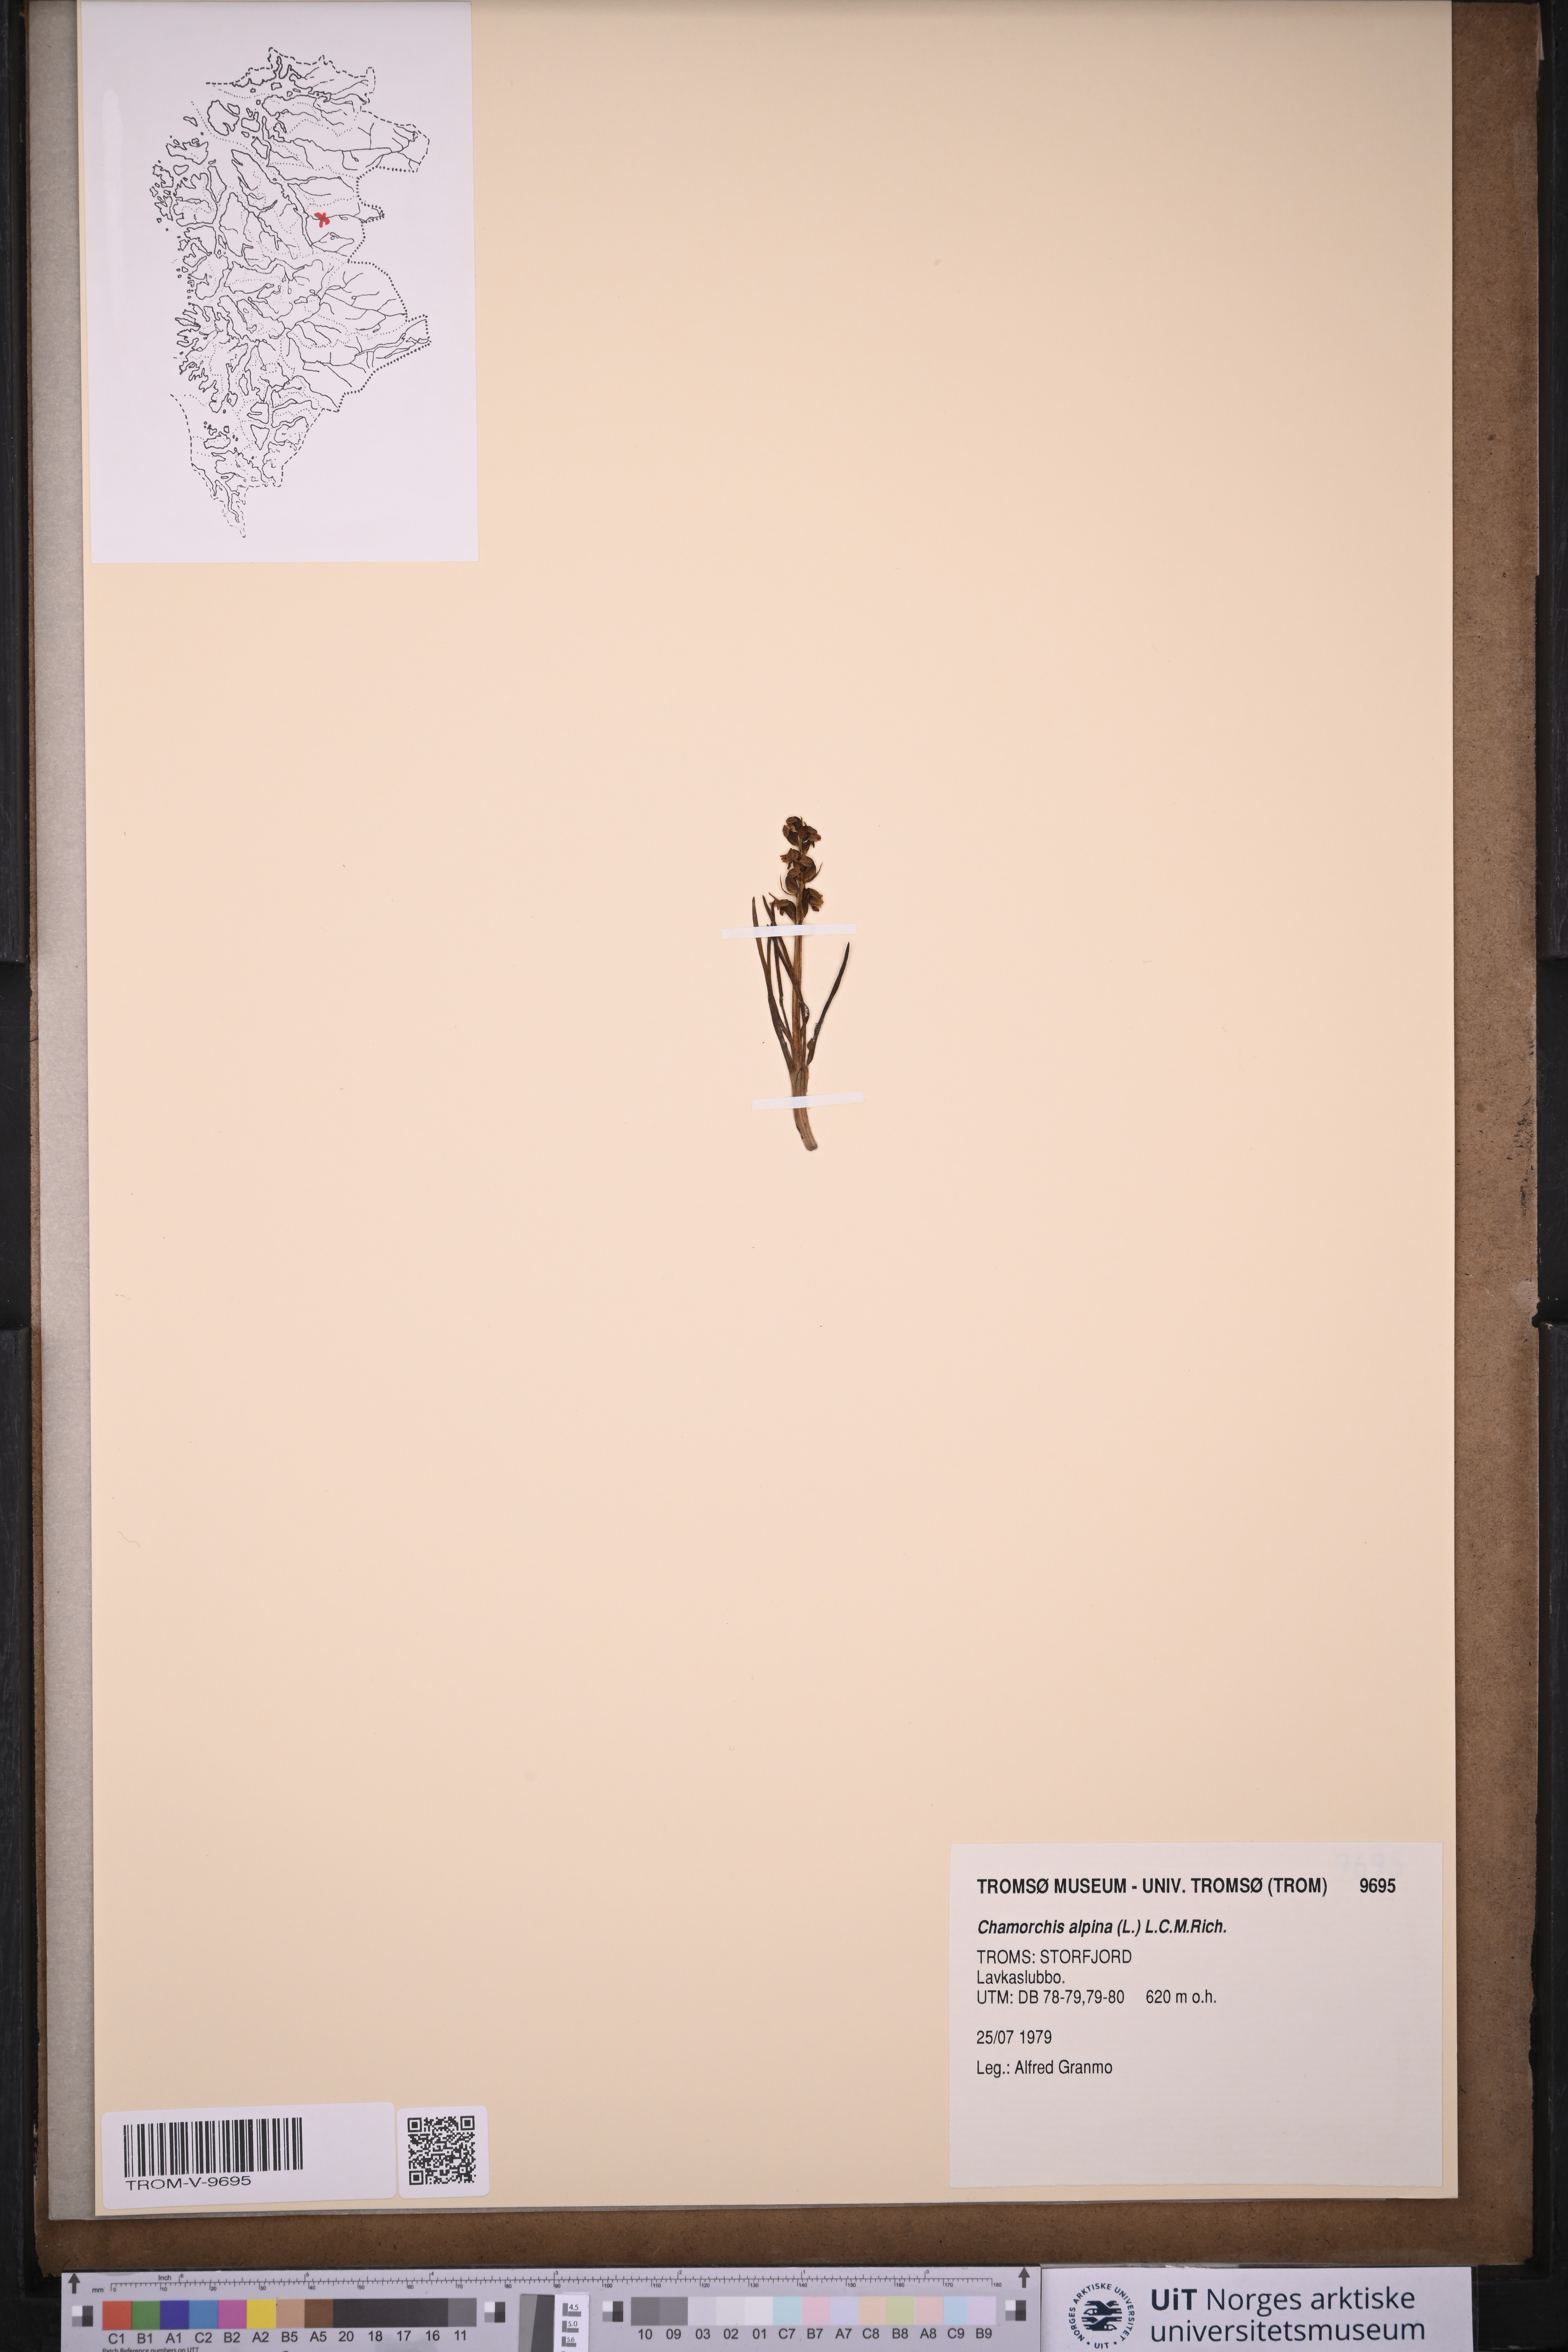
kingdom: Plantae
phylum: Tracheophyta
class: Liliopsida
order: Asparagales
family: Orchidaceae
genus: Chamorchis
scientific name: Chamorchis alpina
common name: Alpine chamorchis
